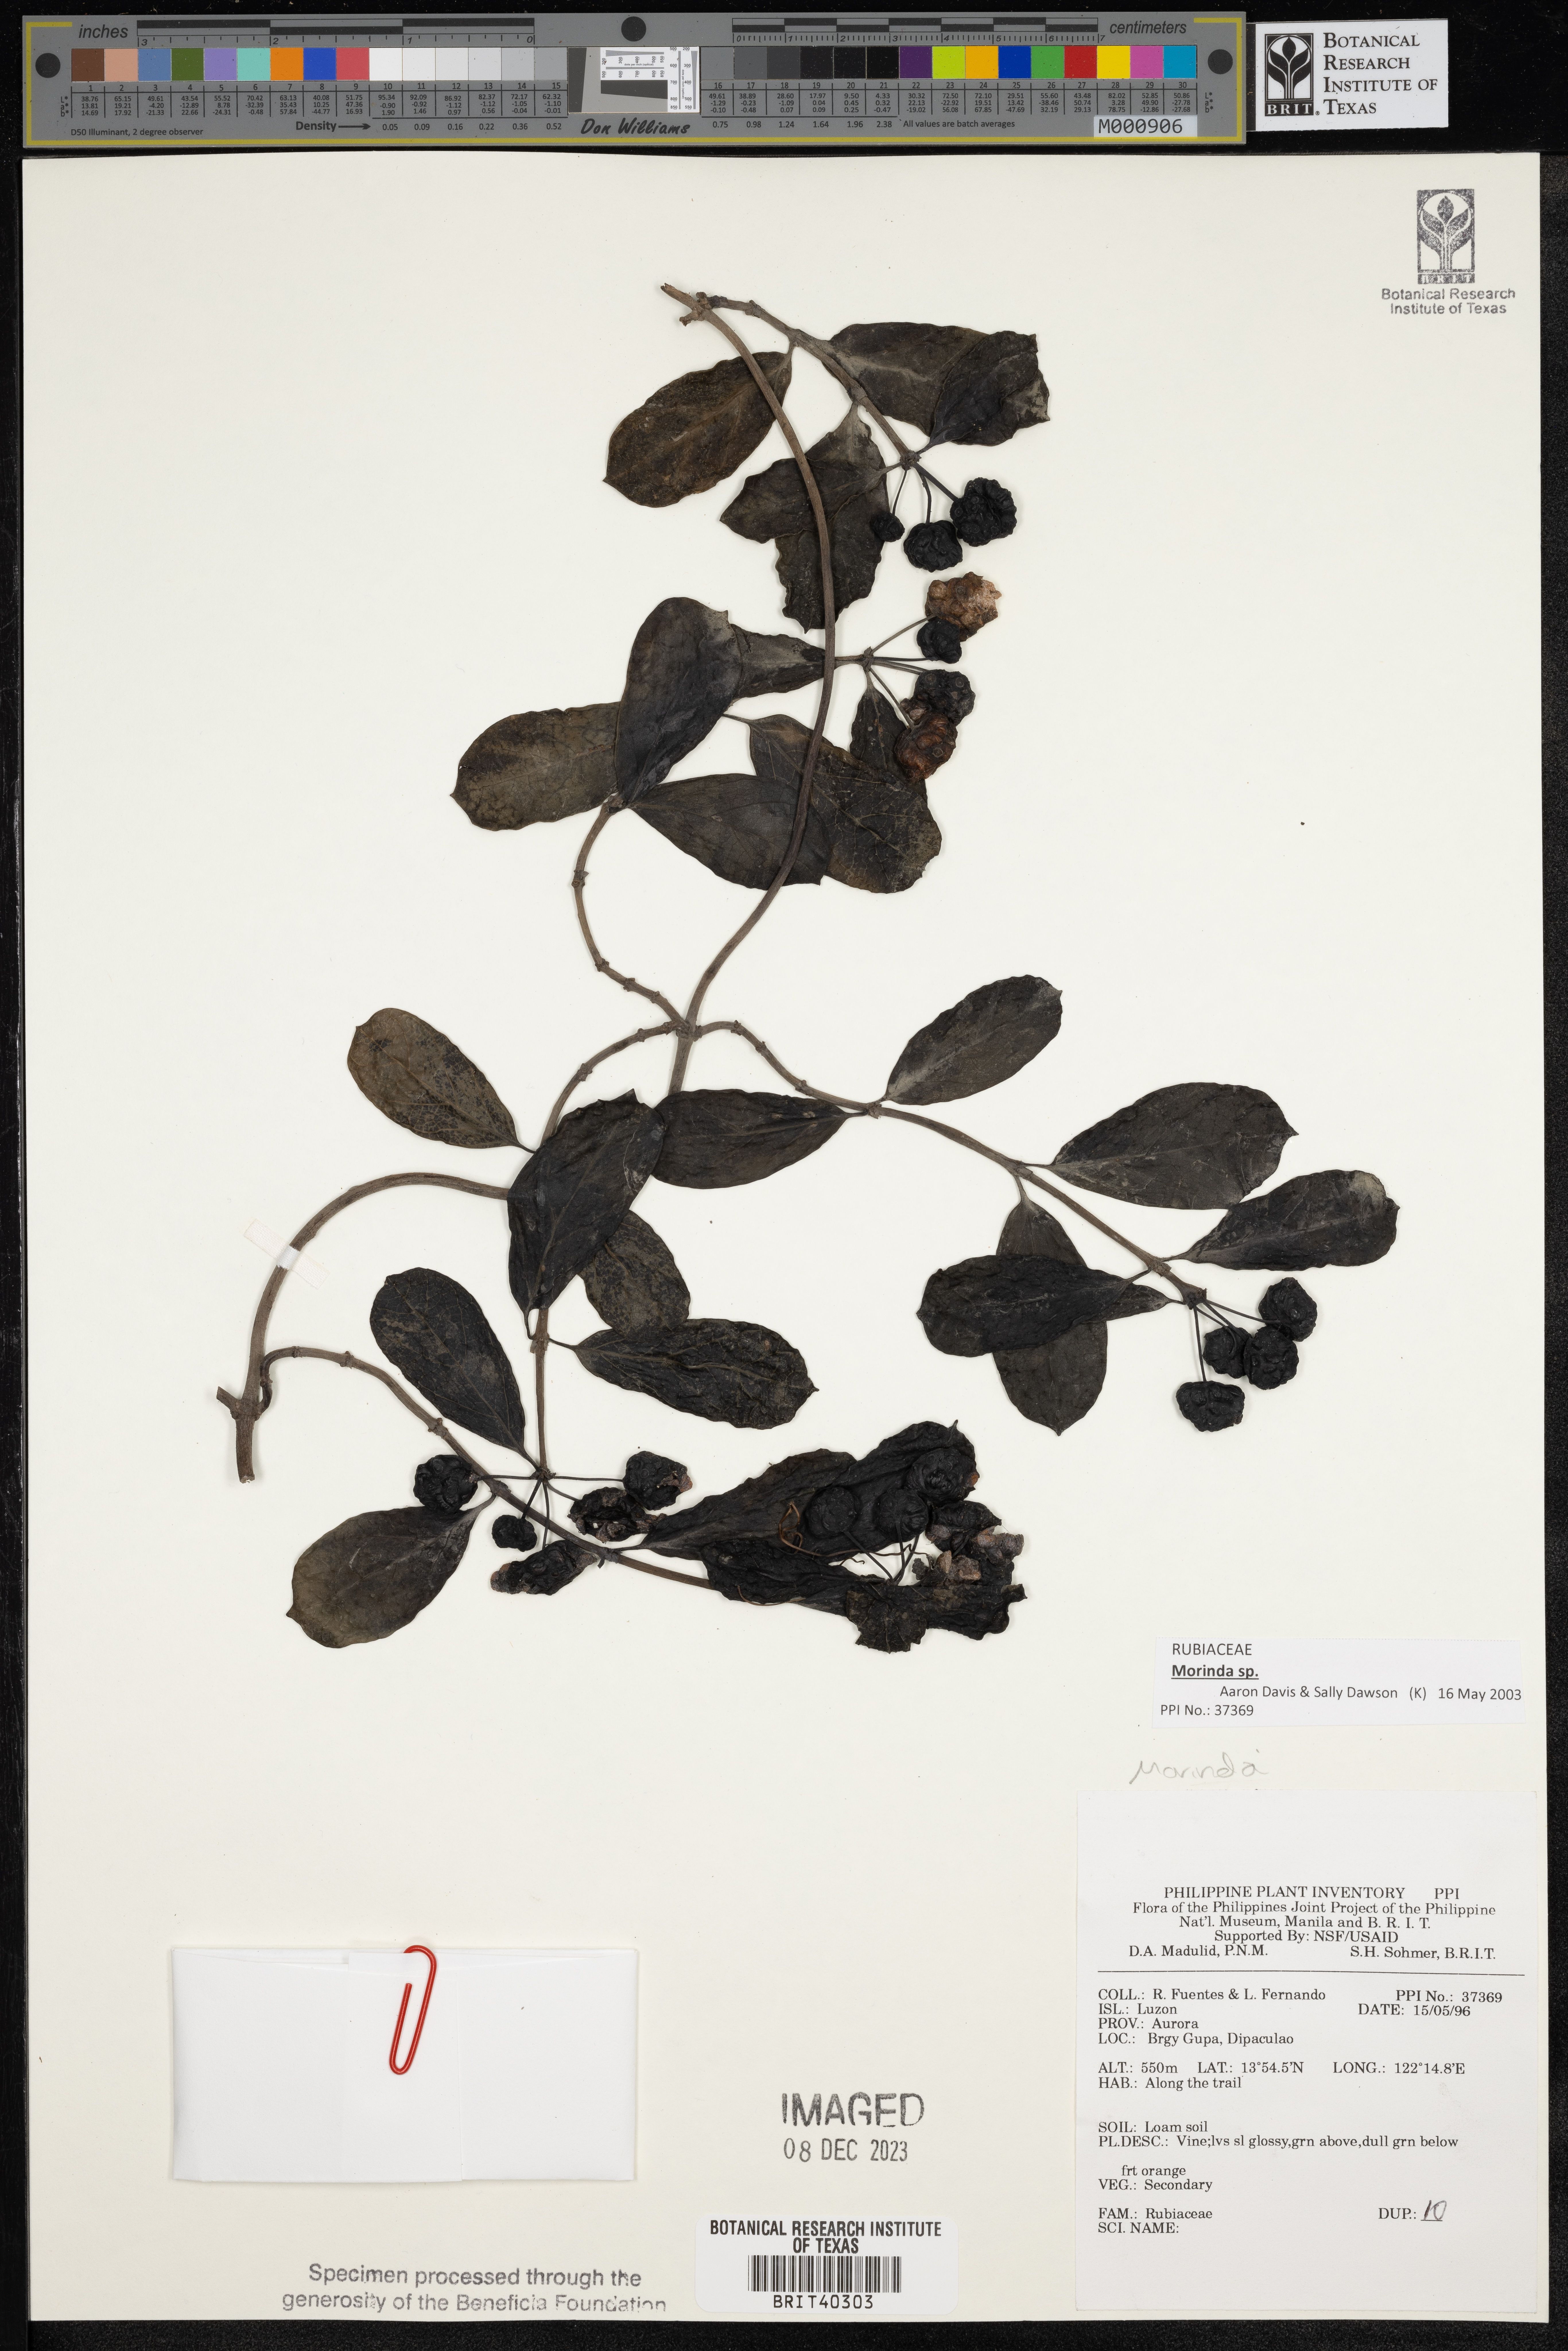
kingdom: Plantae
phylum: Tracheophyta
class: Magnoliopsida
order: Gentianales
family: Rubiaceae
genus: Morinda
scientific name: Morinda
